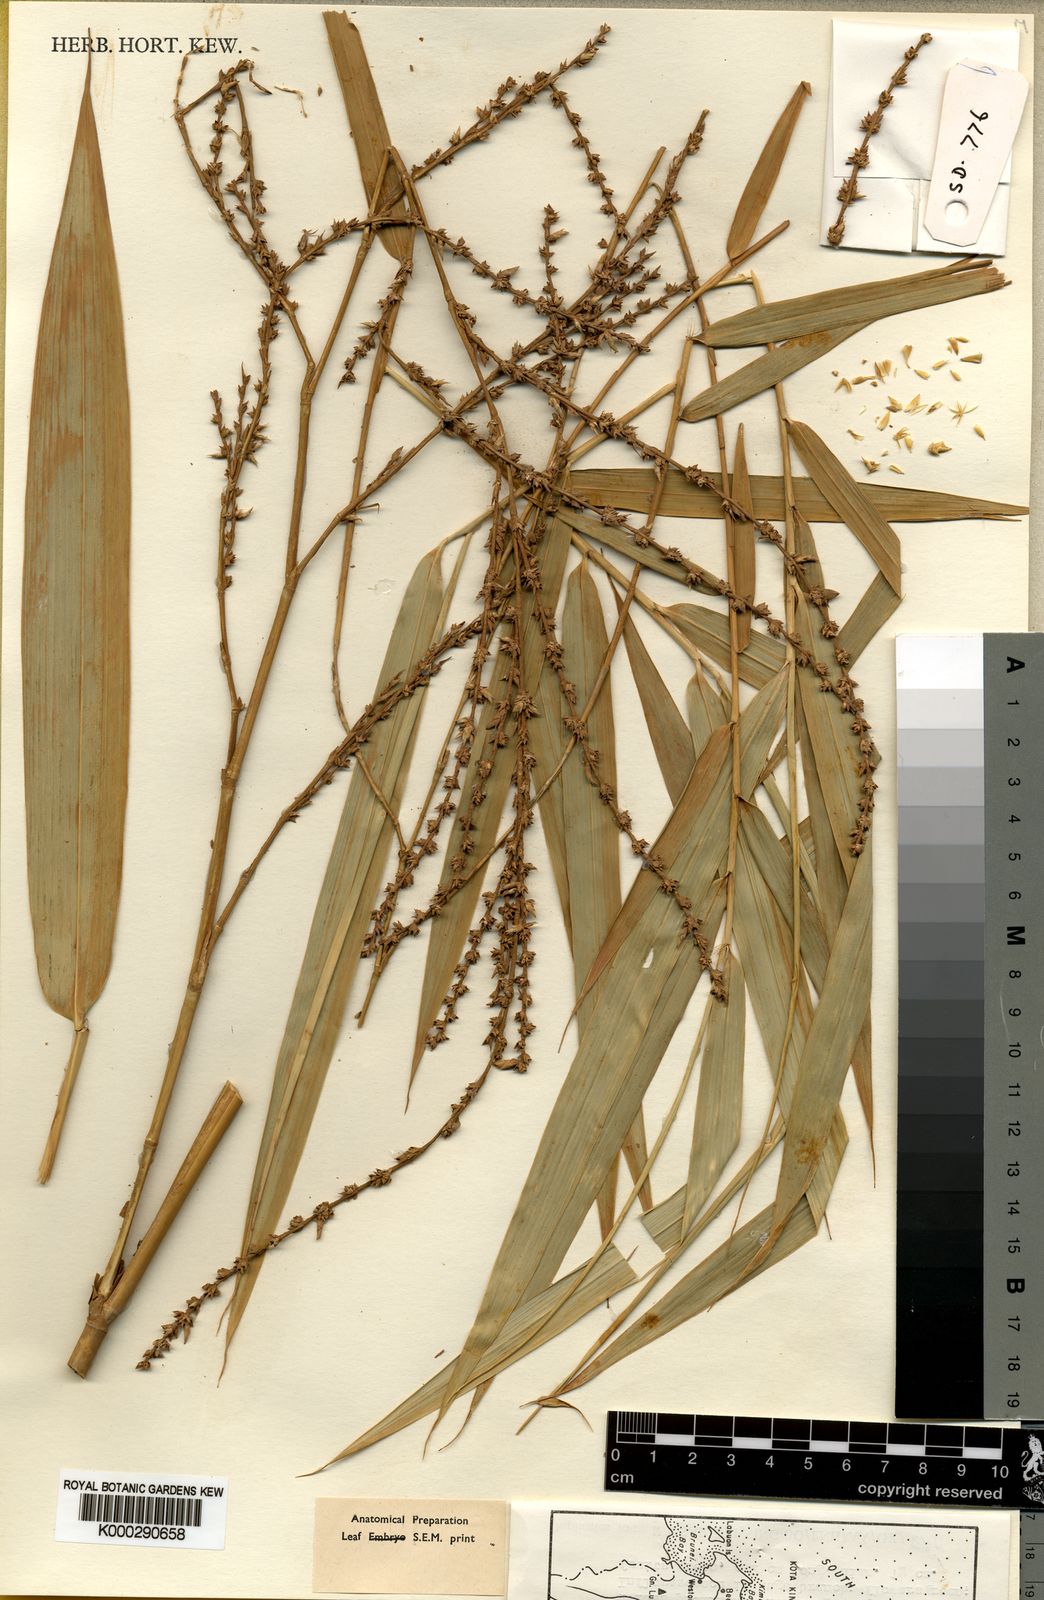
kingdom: Plantae
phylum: Tracheophyta
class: Liliopsida
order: Poales
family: Poaceae
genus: Dinochloa
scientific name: Dinochloa prunifera
